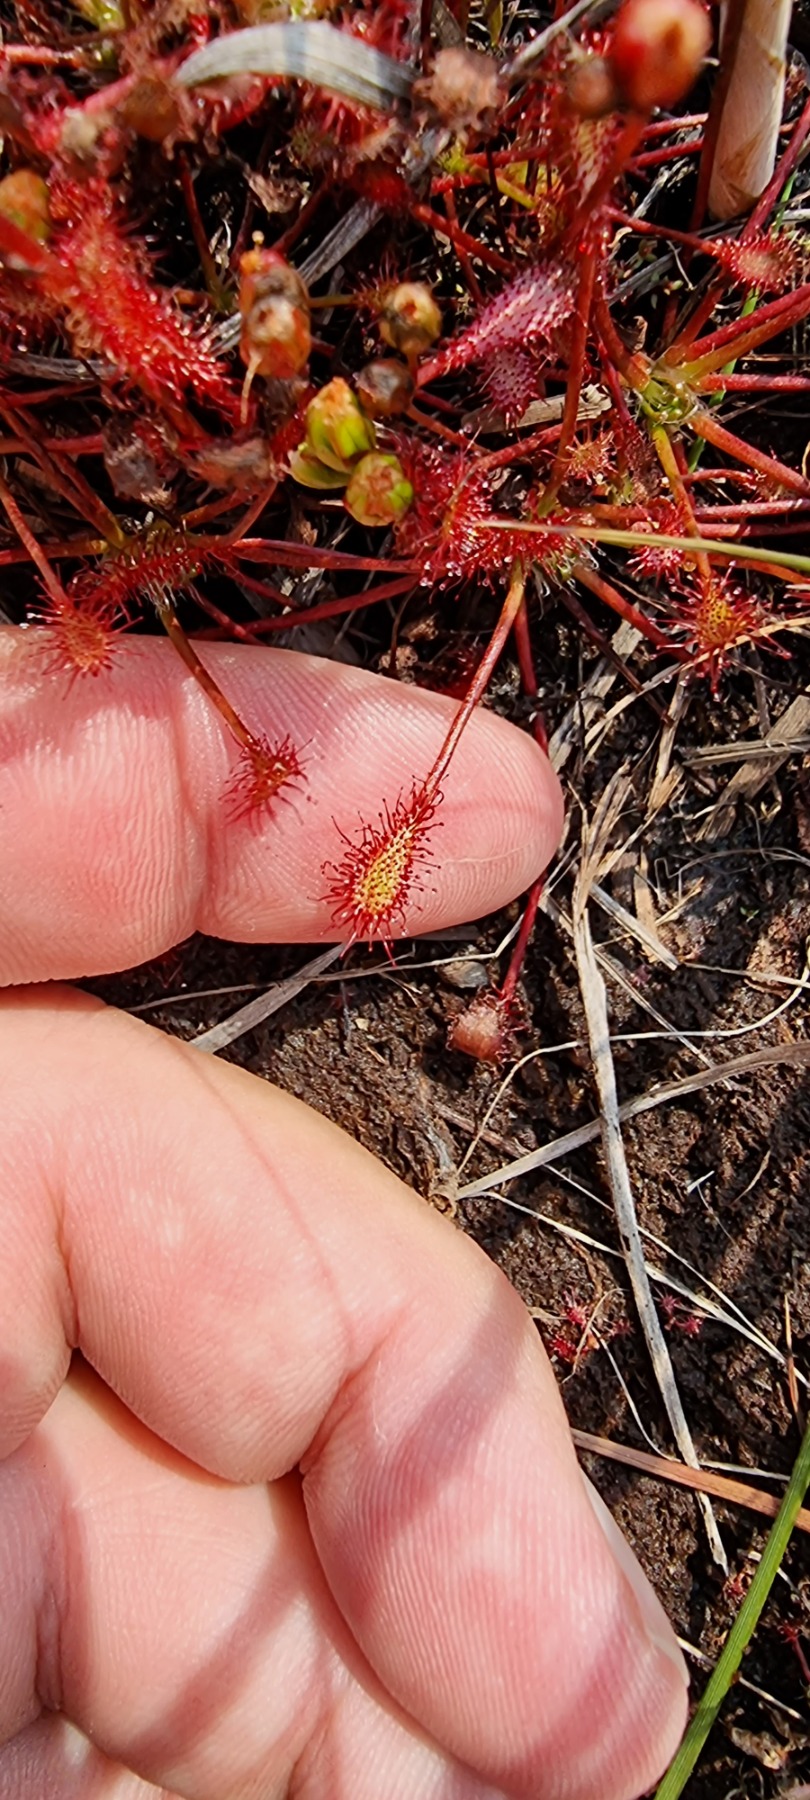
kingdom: Plantae
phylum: Tracheophyta
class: Magnoliopsida
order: Caryophyllales
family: Droseraceae
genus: Drosera
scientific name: Drosera intermedia
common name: Liden soldug
